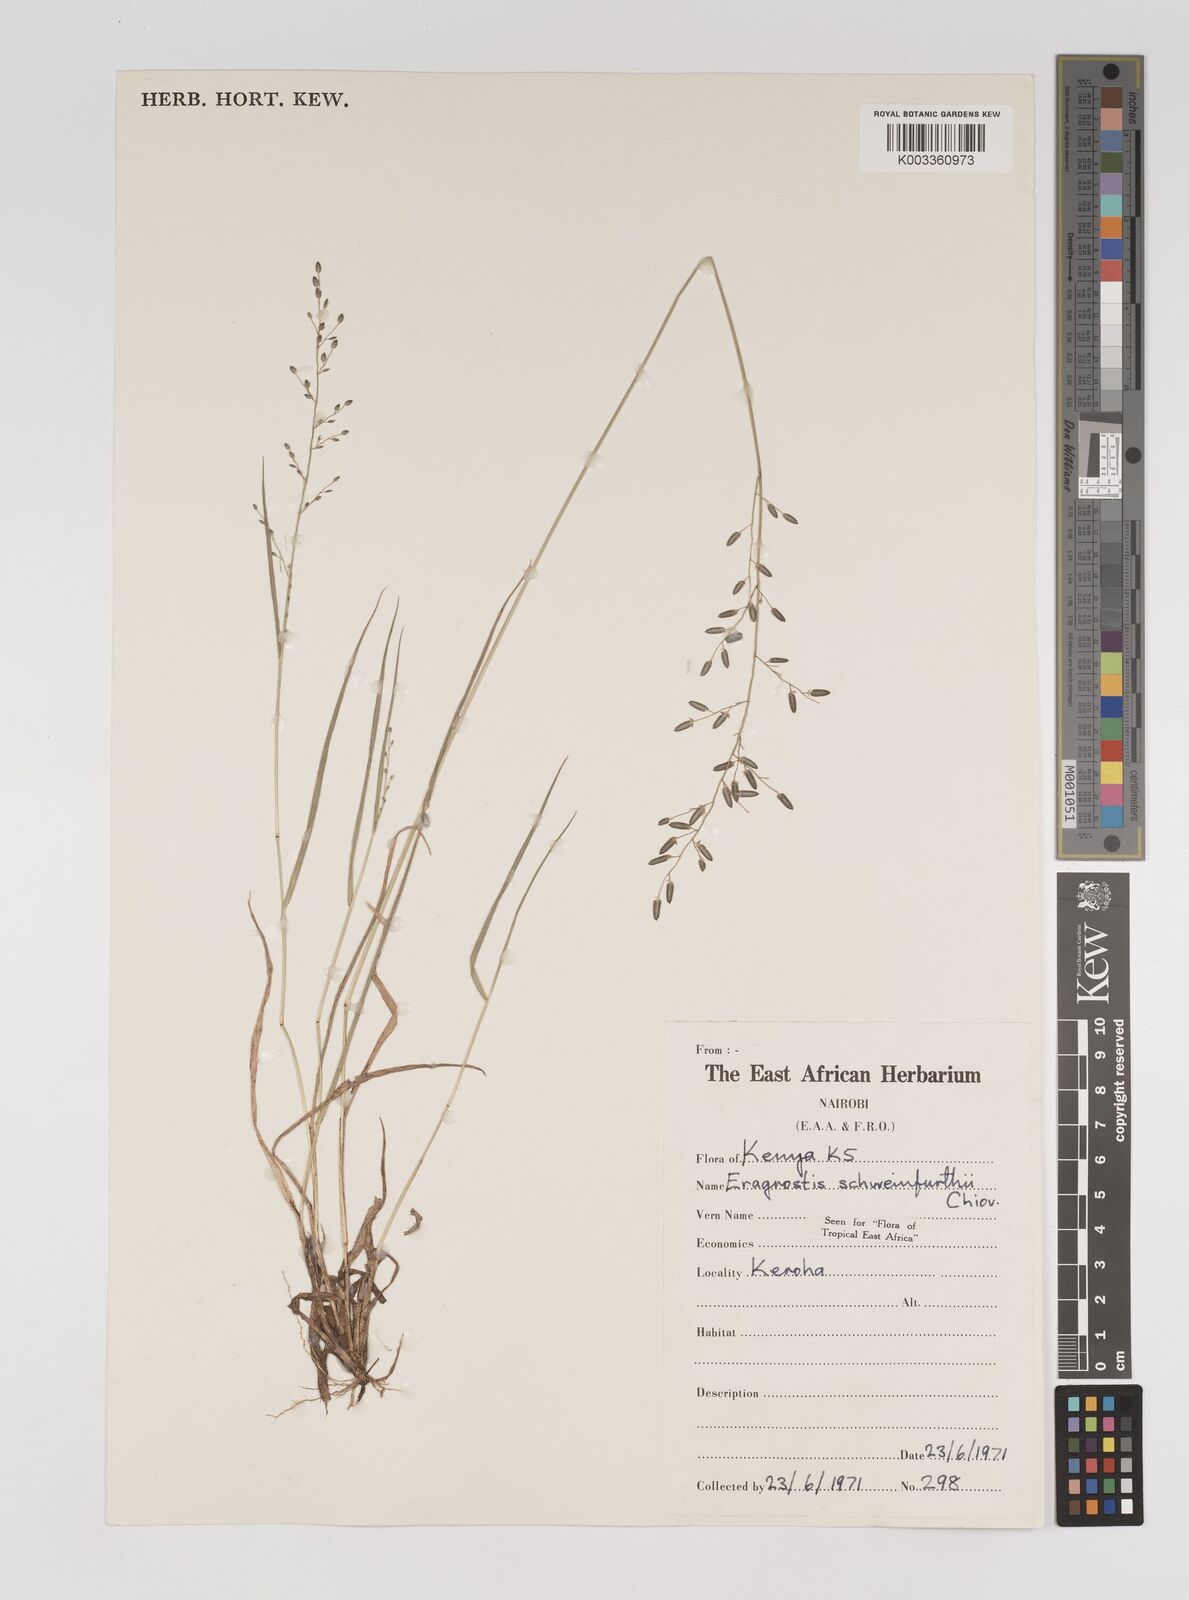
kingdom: Plantae
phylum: Tracheophyta
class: Liliopsida
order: Poales
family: Poaceae
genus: Eragrostis
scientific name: Eragrostis schweinfurthii
